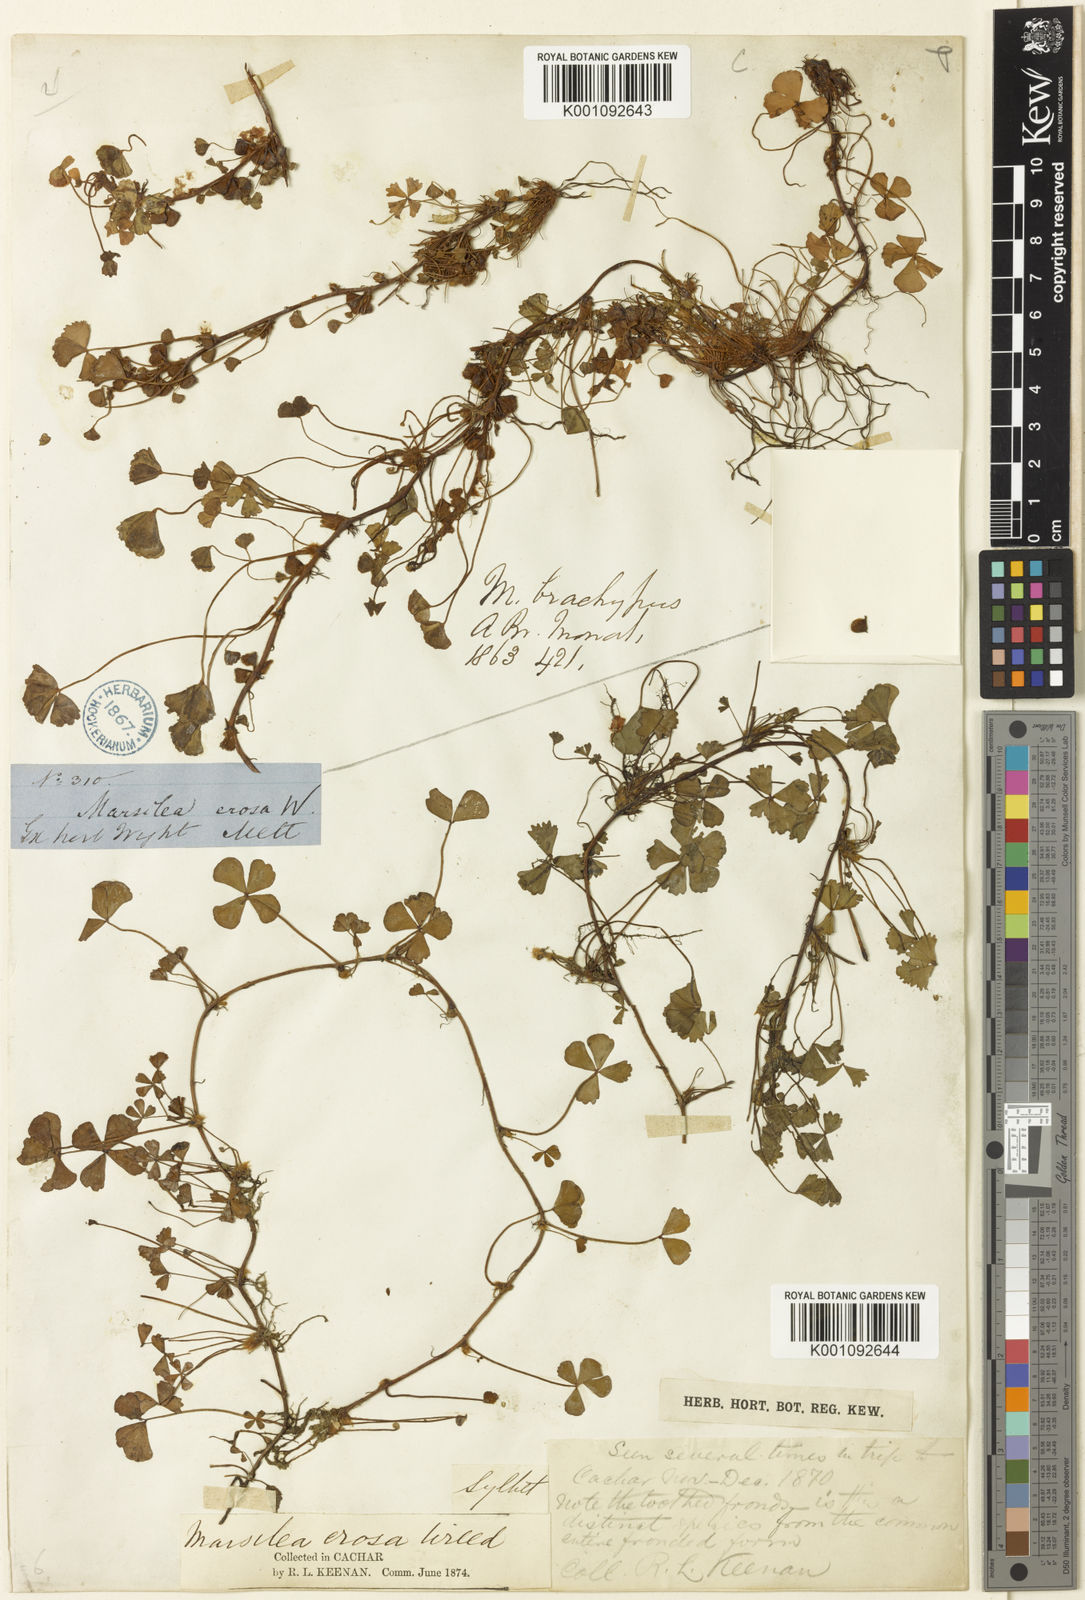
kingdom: Plantae
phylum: Tracheophyta
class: Polypodiopsida
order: Salviniales
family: Marsileaceae
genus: Marsilea
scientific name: Marsilea minuta
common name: Dwarf waterclover
